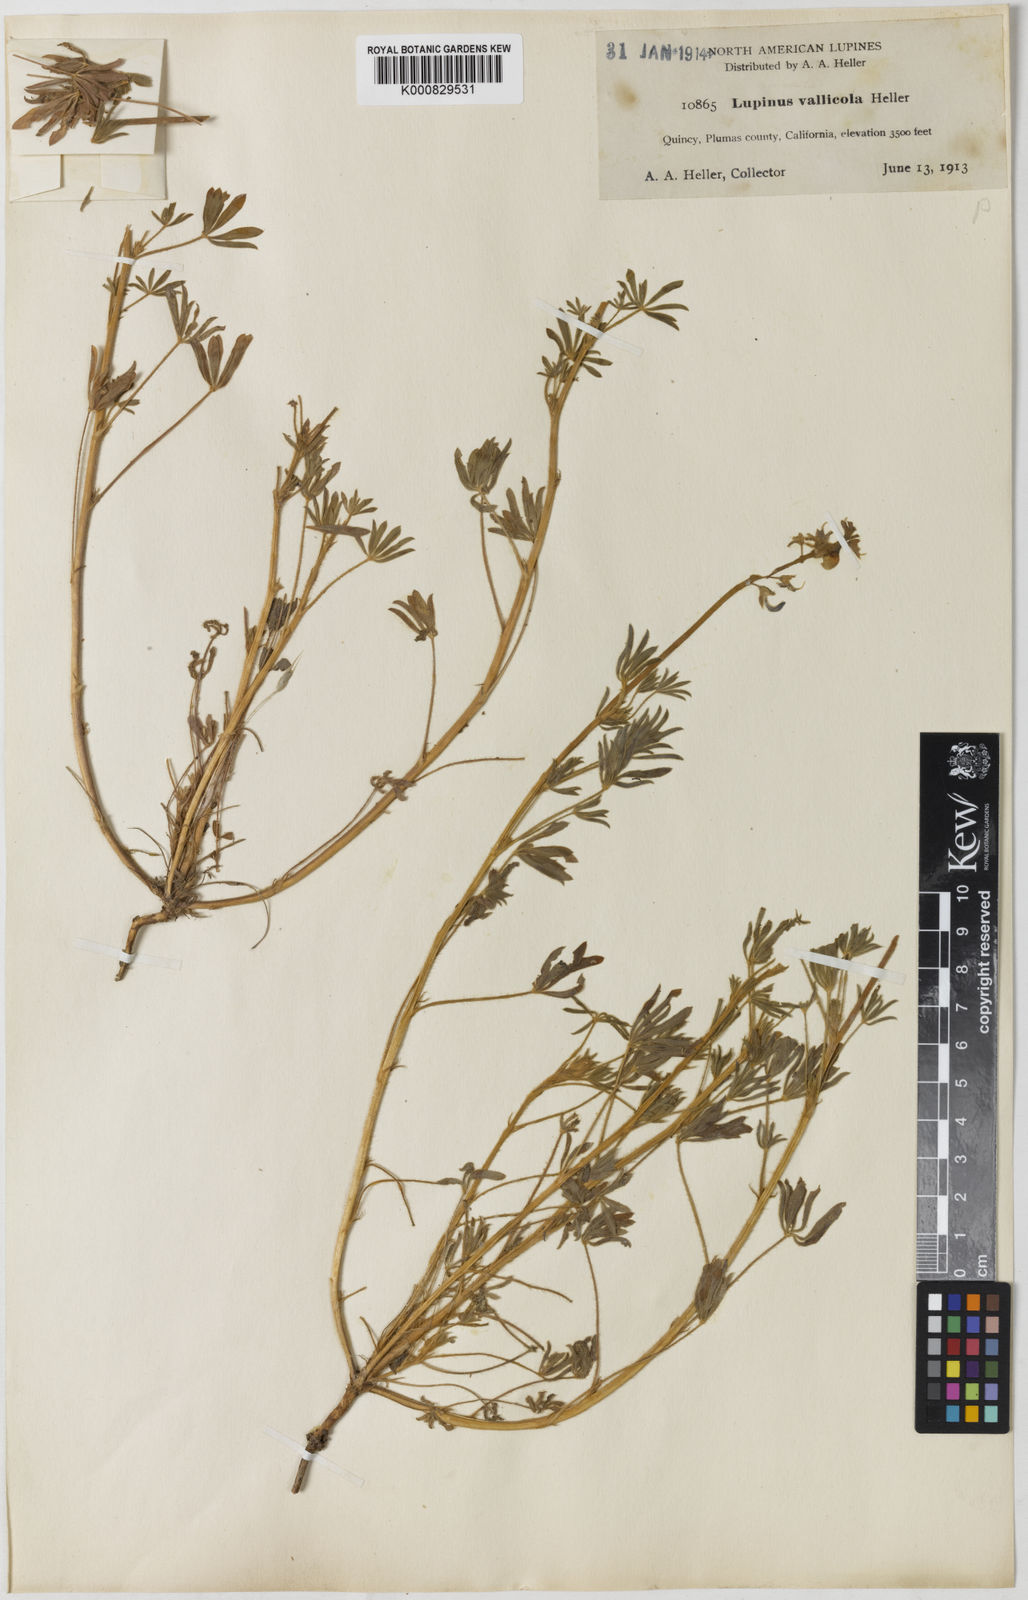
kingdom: Plantae
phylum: Tracheophyta
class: Magnoliopsida
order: Fabales
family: Fabaceae
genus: Lupinus
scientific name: Lupinus vallicola
